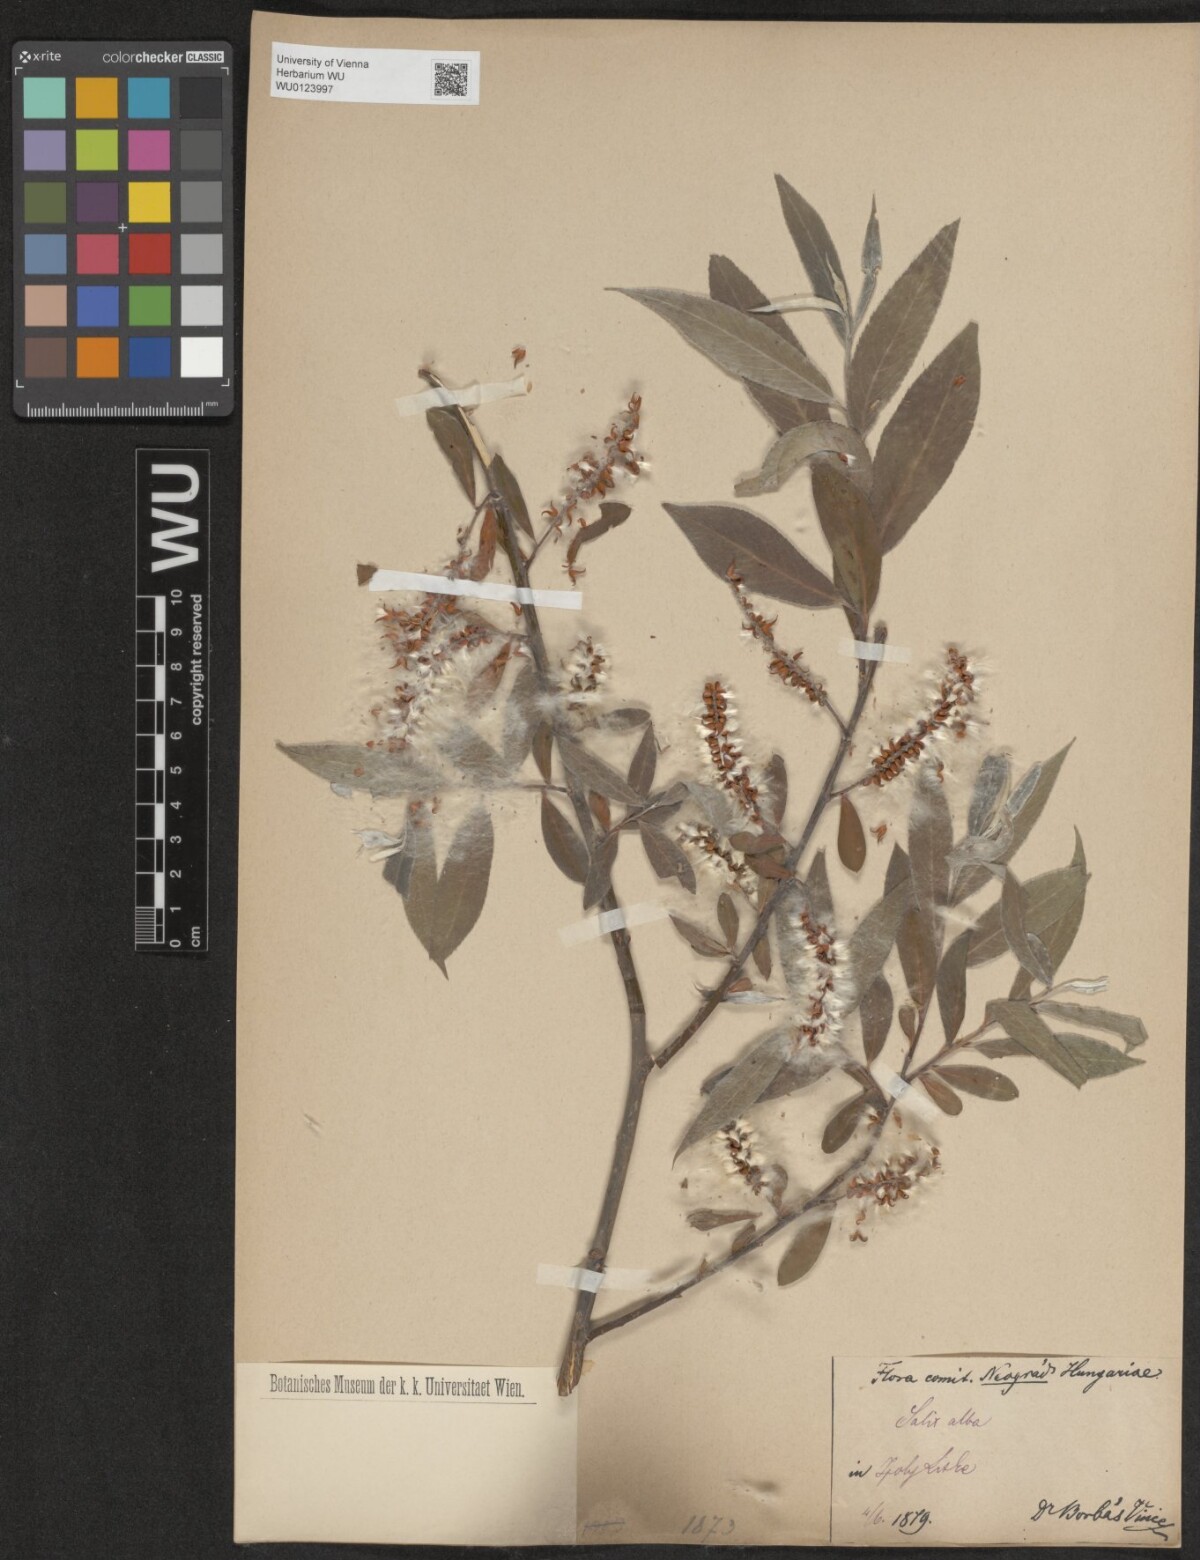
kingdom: Plantae
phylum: Tracheophyta
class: Magnoliopsida
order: Malpighiales
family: Salicaceae
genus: Salix
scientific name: Salix alba
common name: White willow
